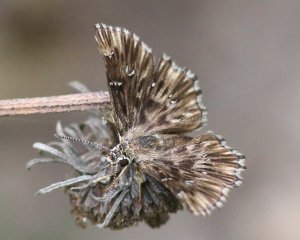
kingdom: Animalia
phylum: Arthropoda
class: Insecta
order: Lepidoptera
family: Hesperiidae
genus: Celotes
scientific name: Celotes nessus
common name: Common Streaky-Skipper
